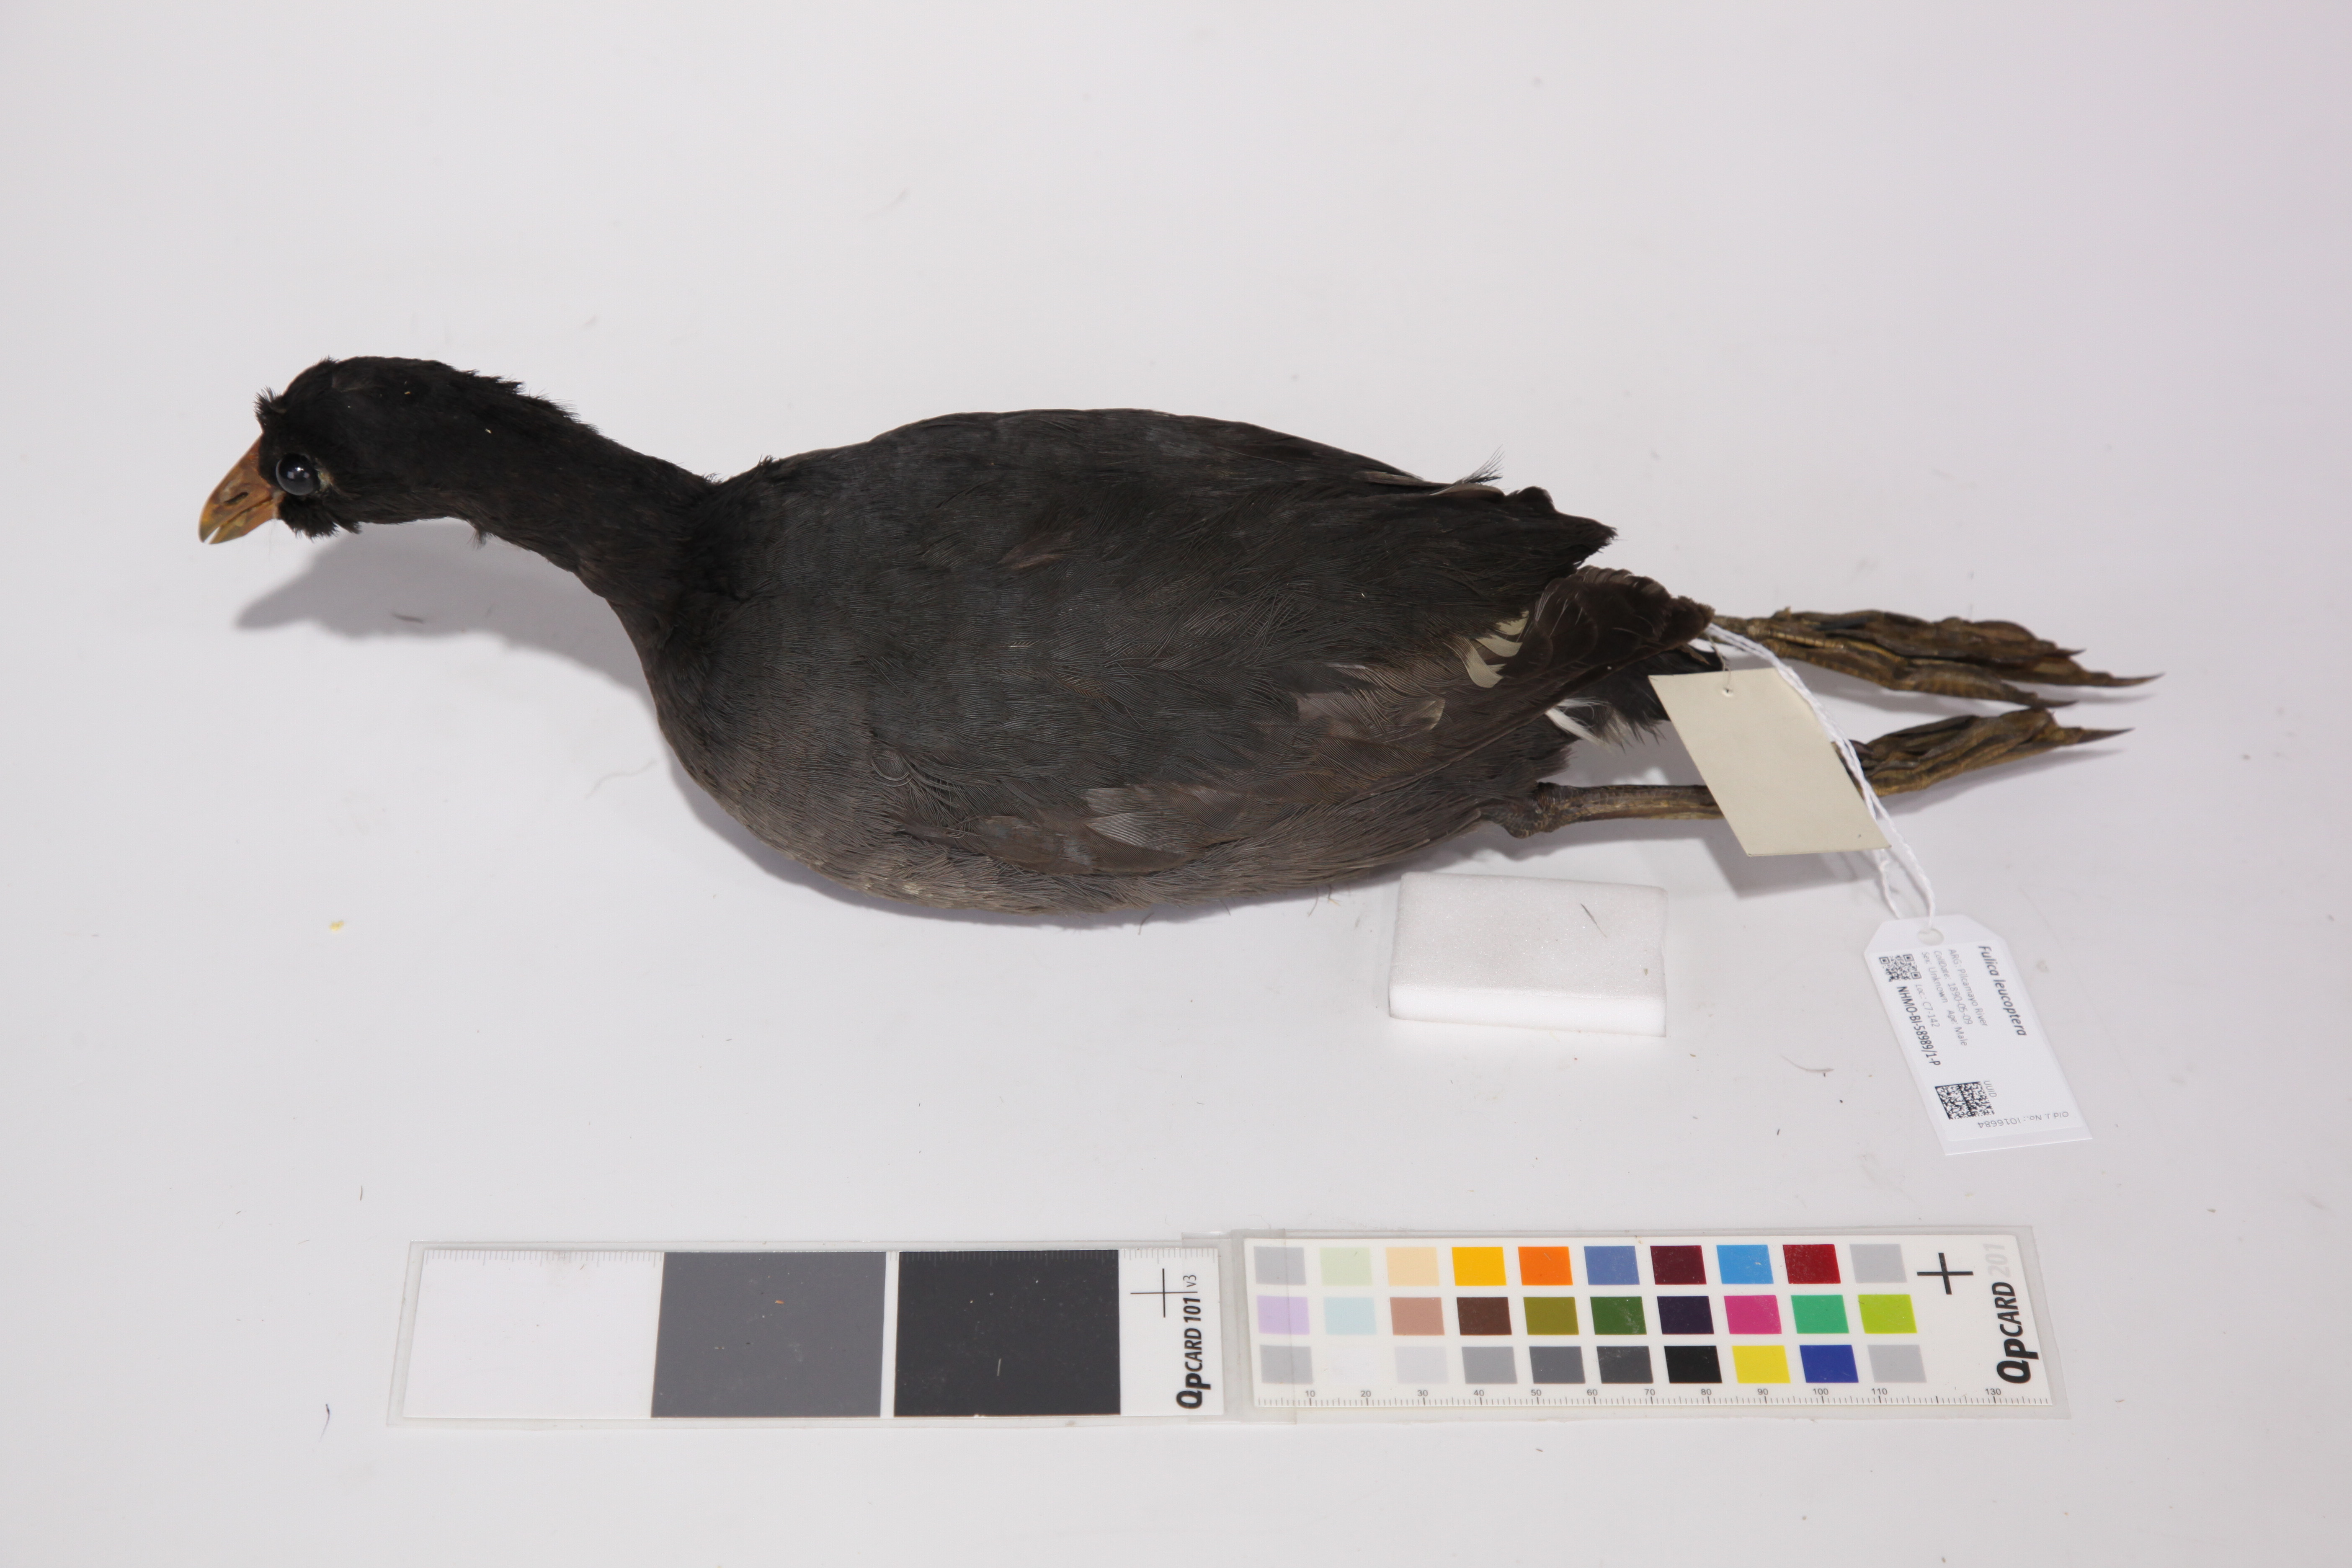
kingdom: Animalia
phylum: Chordata
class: Aves
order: Gruiformes
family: Rallidae
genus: Fulica
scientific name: Fulica leucoptera
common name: White-winged coot
